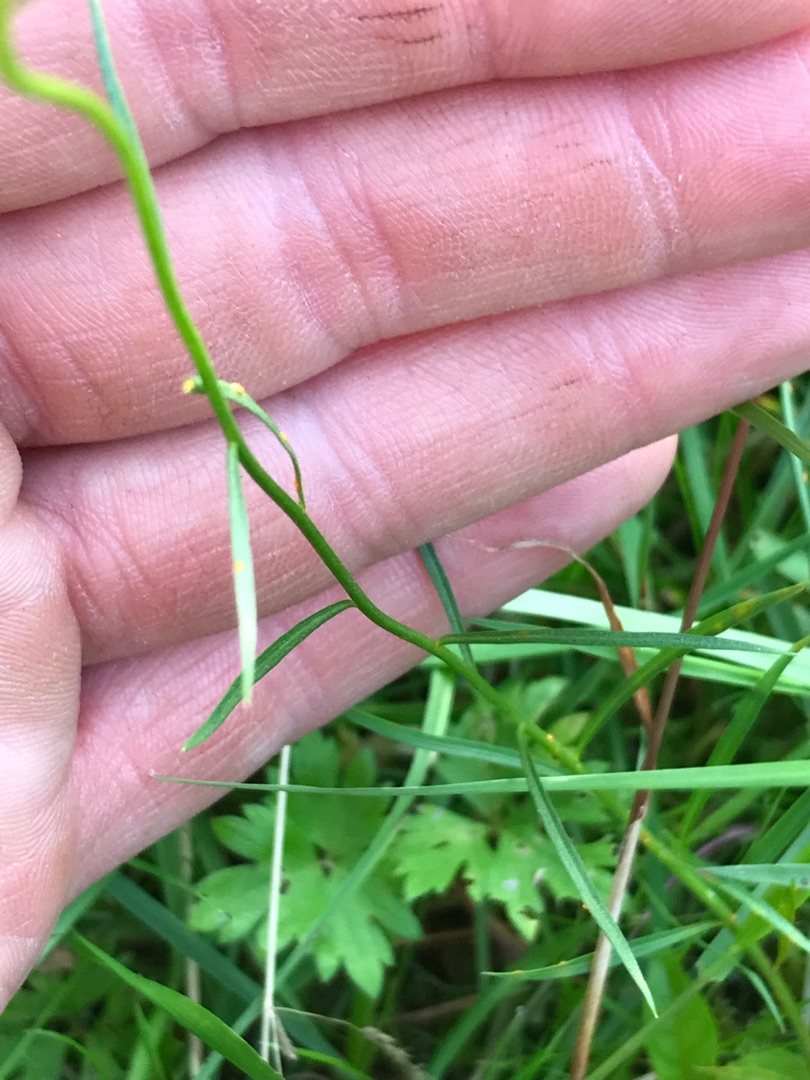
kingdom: Plantae
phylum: Tracheophyta
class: Magnoliopsida
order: Asterales
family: Campanulaceae
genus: Campanula
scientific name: Campanula rotundifolia
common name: Liden klokke
